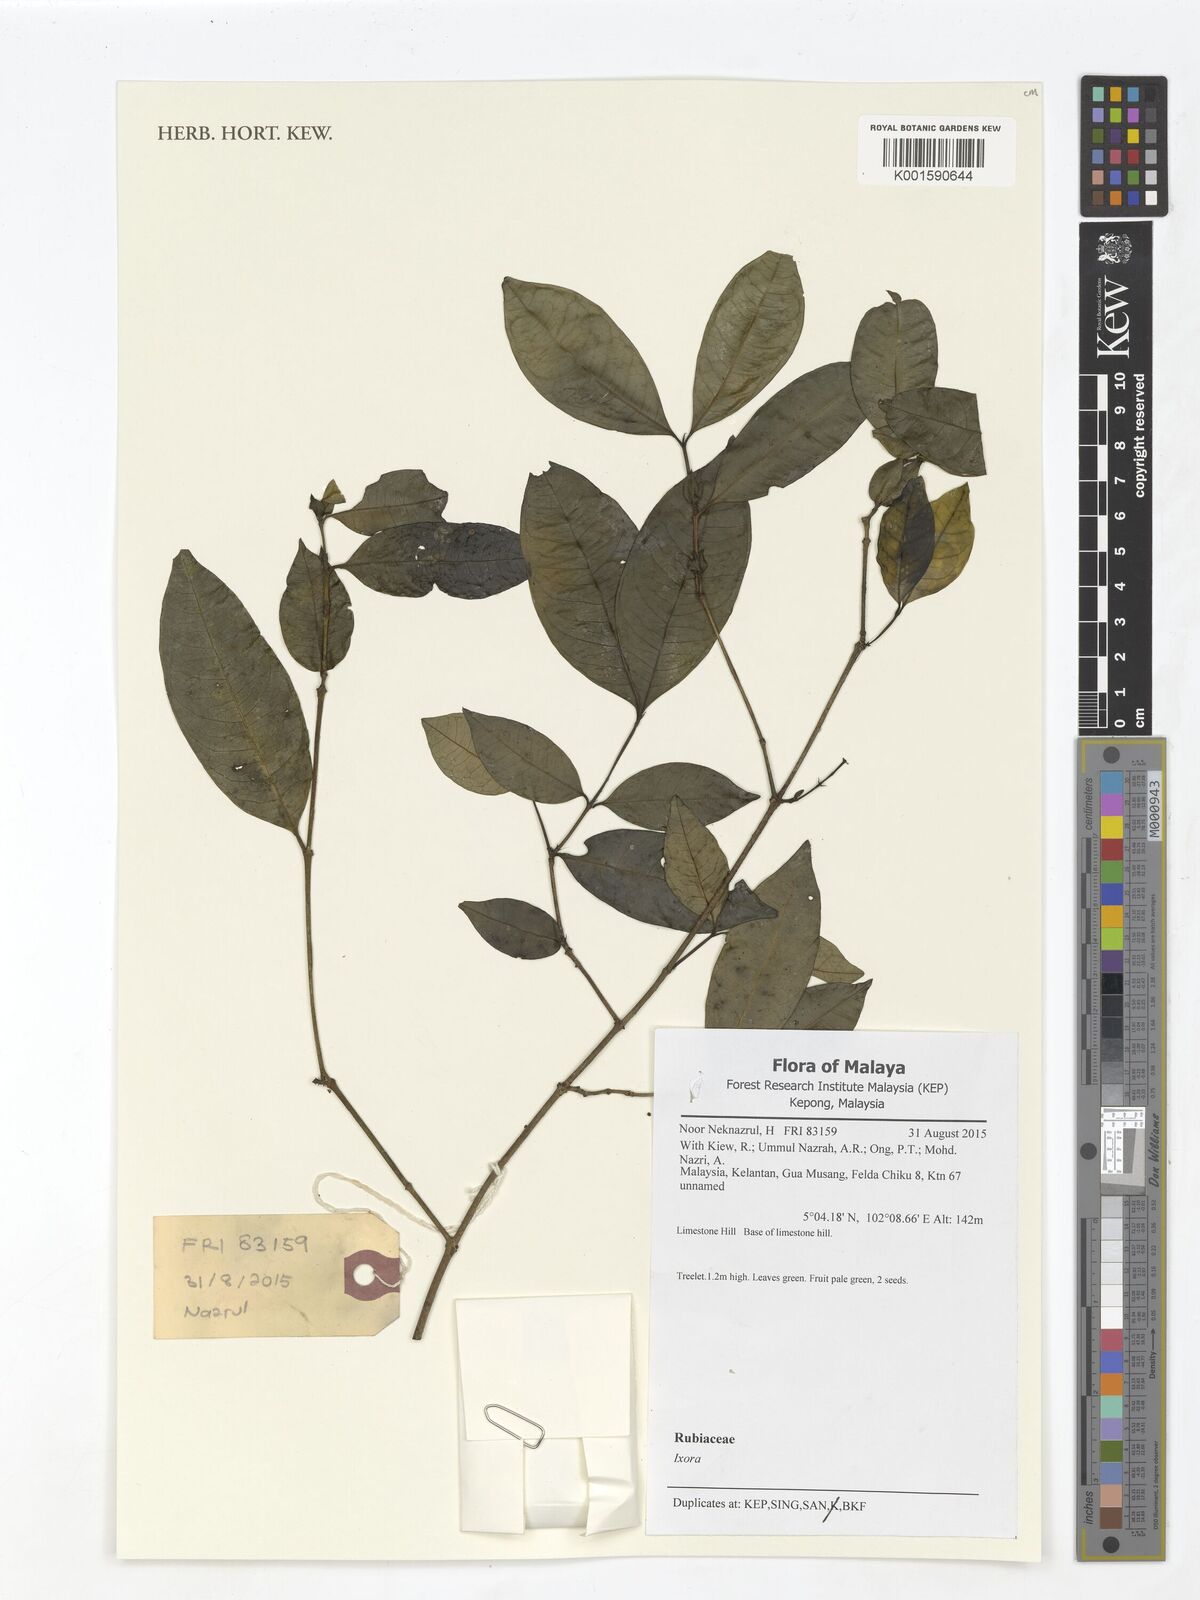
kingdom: Plantae
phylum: Tracheophyta
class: Magnoliopsida
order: Gentianales
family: Rubiaceae
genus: Ixora
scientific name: Ixora
